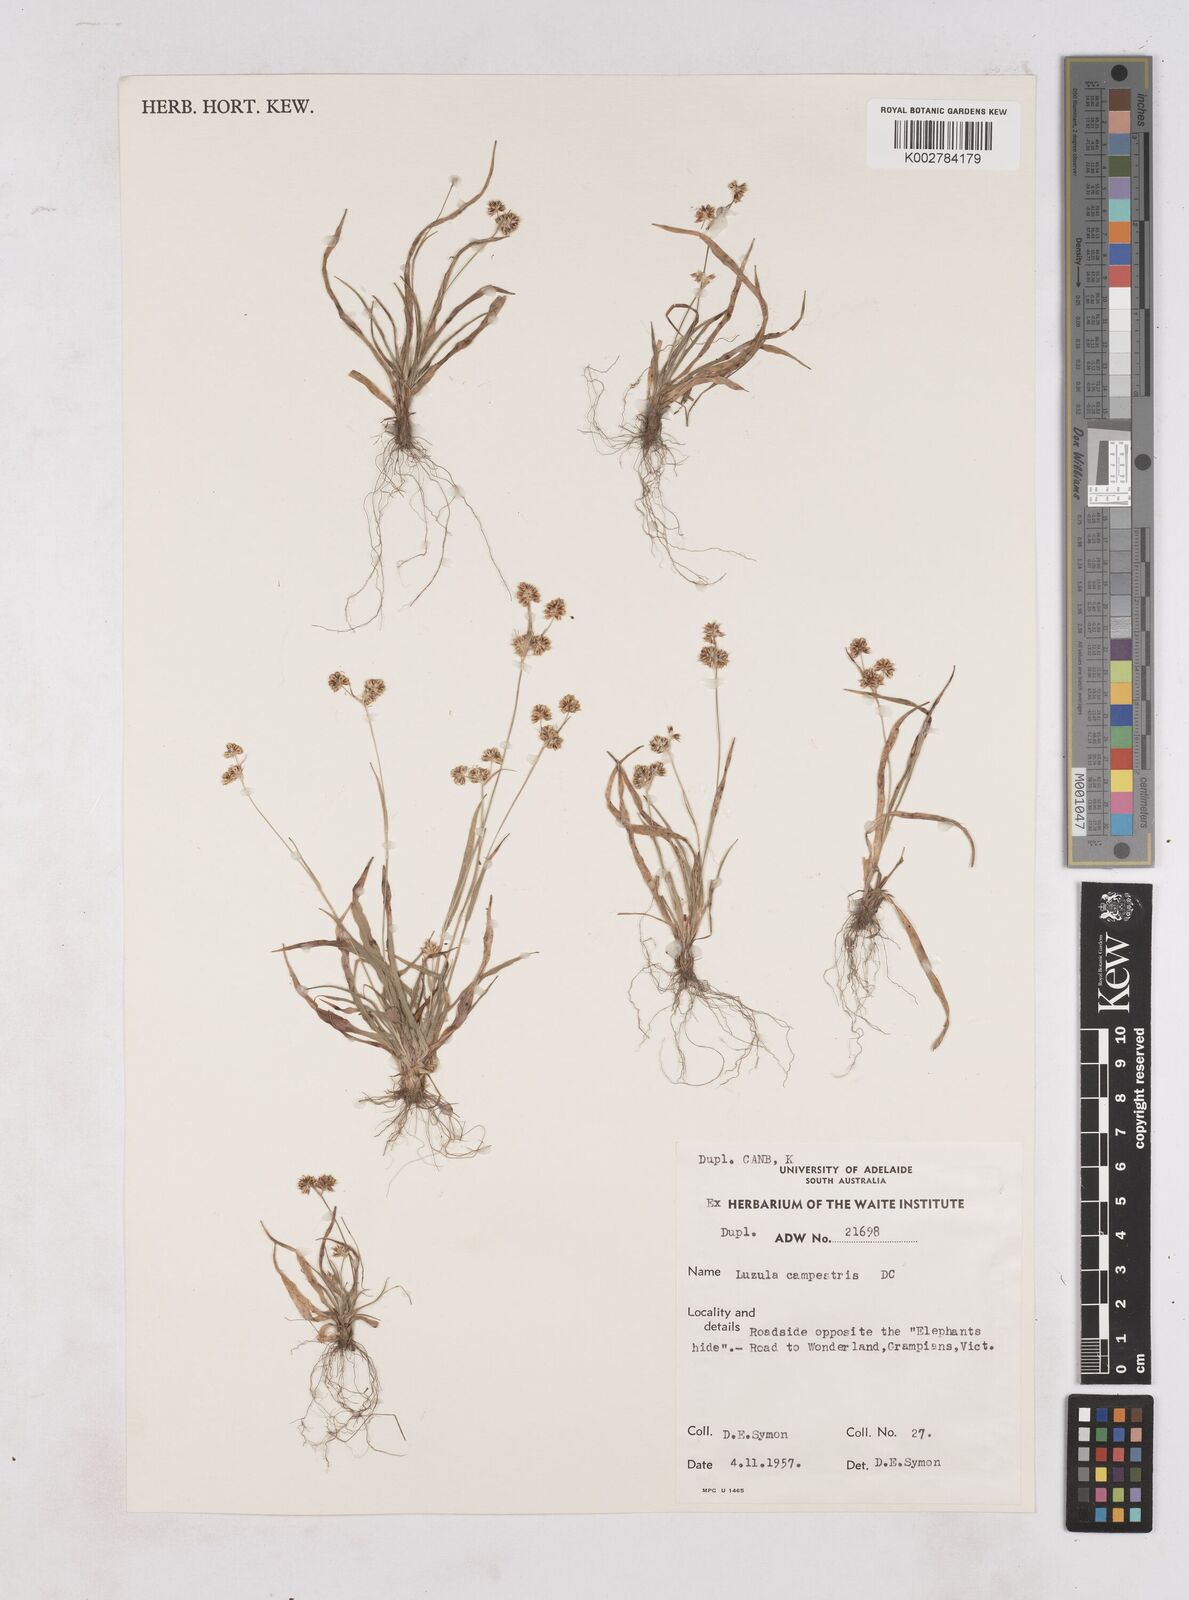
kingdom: Plantae
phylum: Tracheophyta
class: Liliopsida
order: Poales
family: Juncaceae
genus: Luzula
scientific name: Luzula campestris
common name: Field wood-rush
